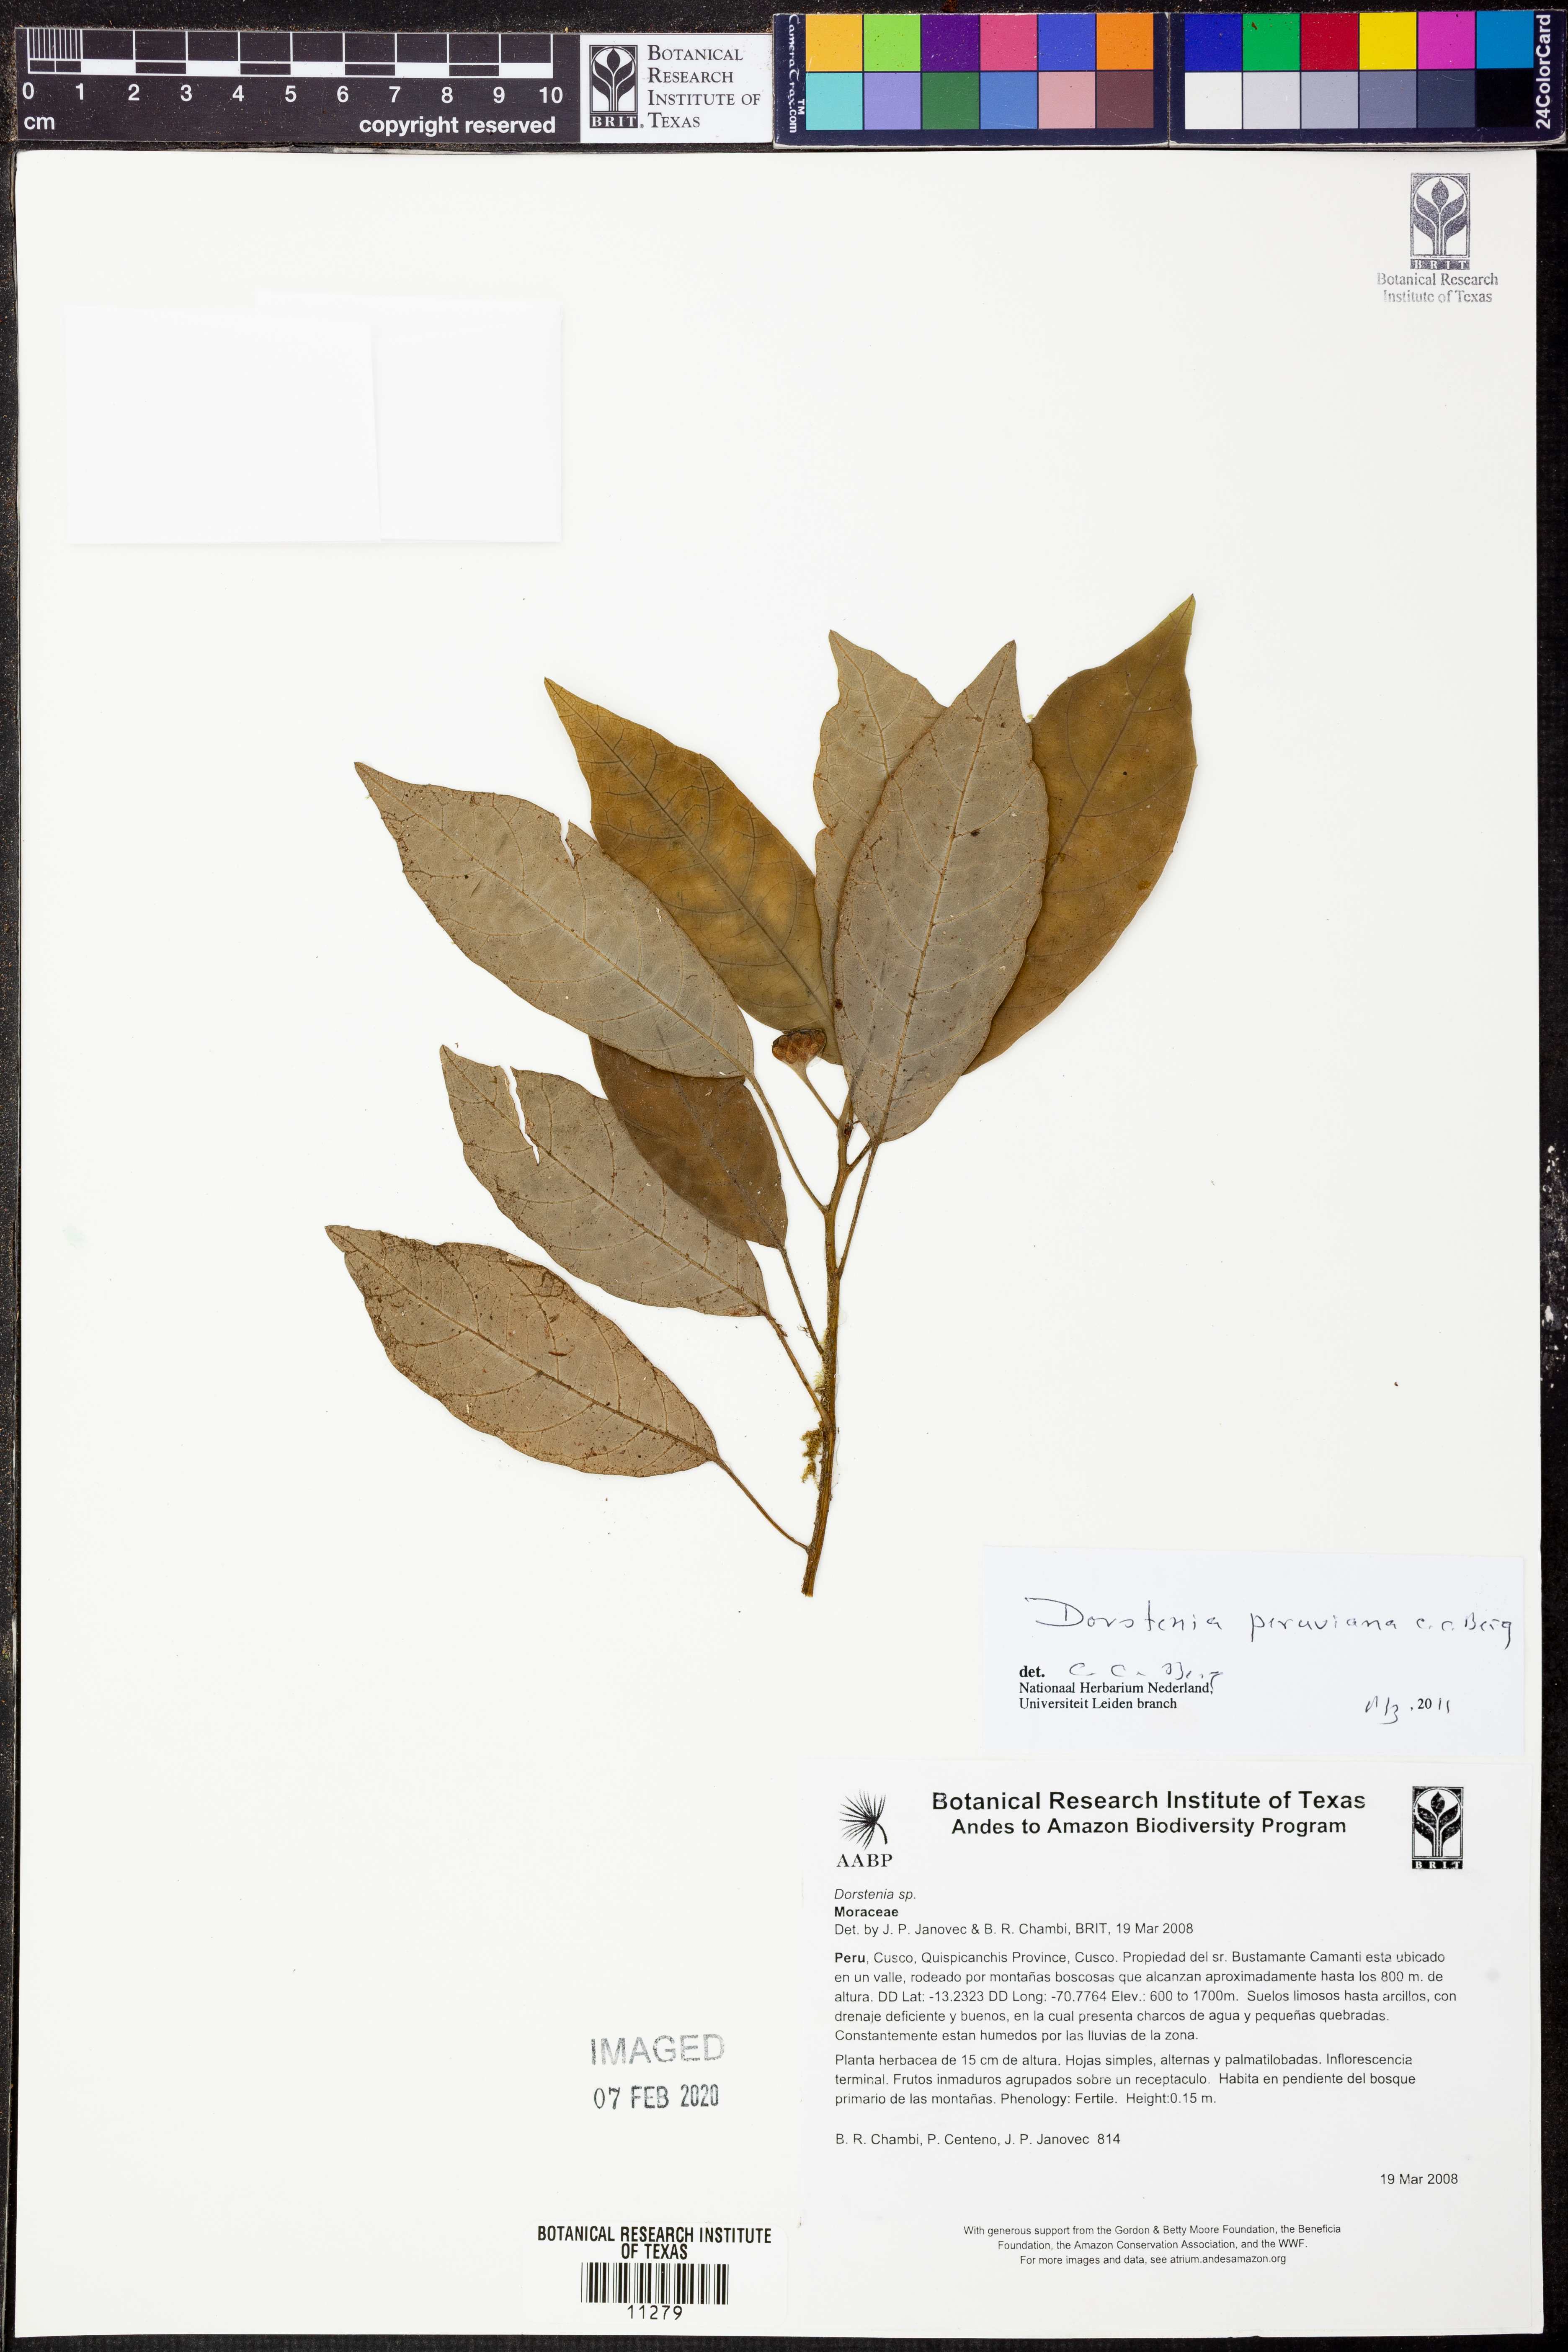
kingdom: Plantae
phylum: Tracheophyta
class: Magnoliopsida
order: Rosales
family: Moraceae
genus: Dorstenia
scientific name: Dorstenia
